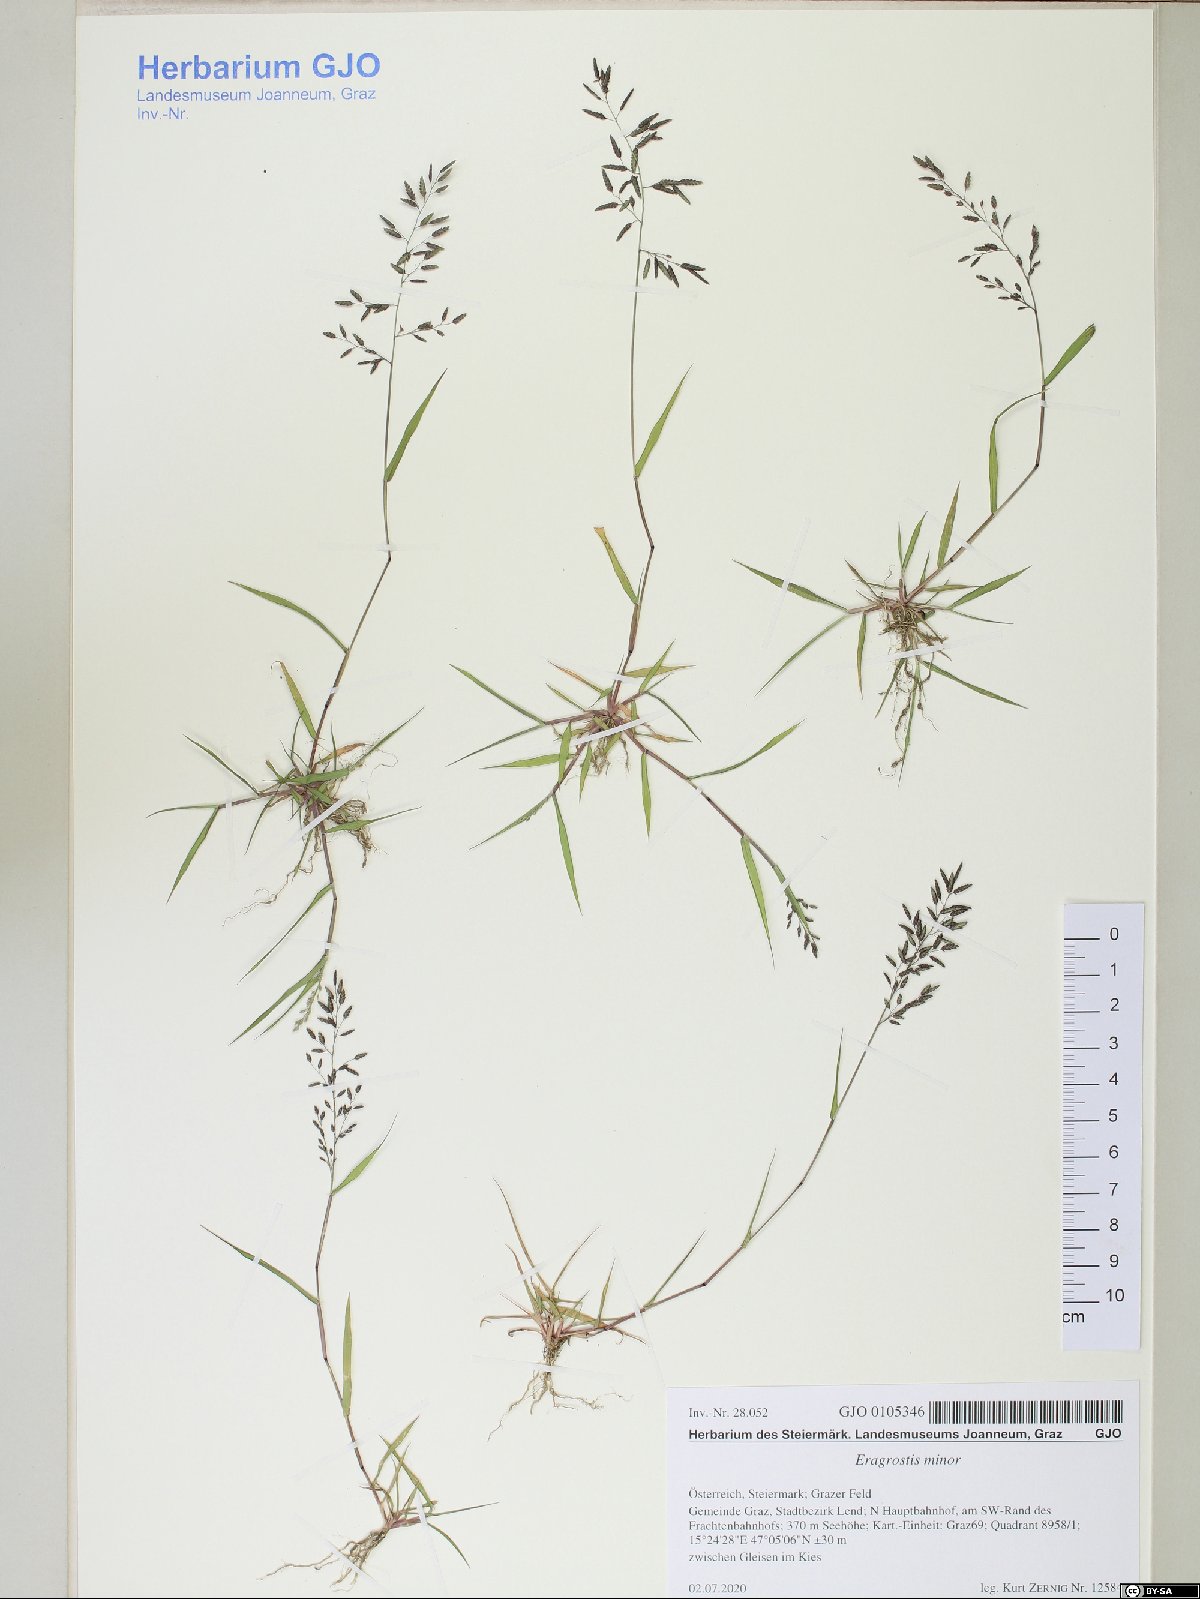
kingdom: Plantae
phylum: Tracheophyta
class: Liliopsida
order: Poales
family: Poaceae
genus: Eragrostis
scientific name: Eragrostis minor
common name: Small love-grass
